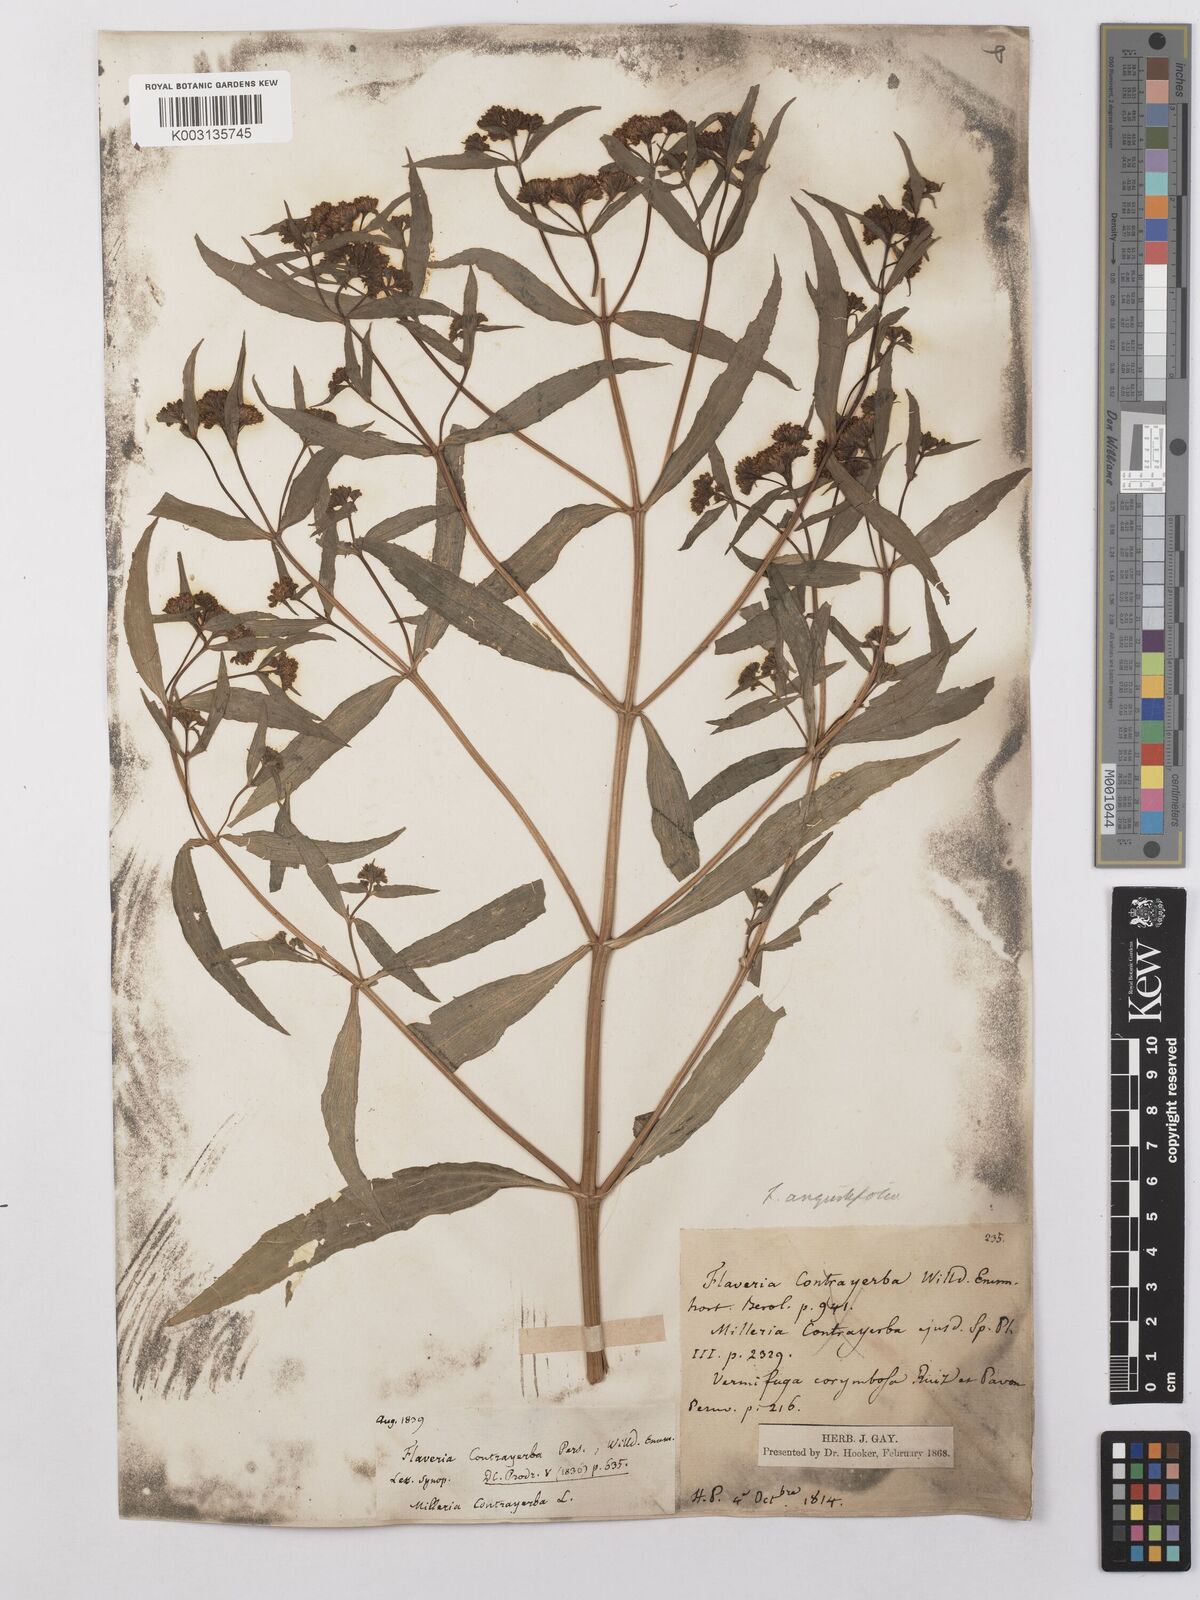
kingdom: Plantae
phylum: Tracheophyta
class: Magnoliopsida
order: Asterales
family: Asteraceae
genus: Flaveria
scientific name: Flaveria bidentis
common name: Coastal plain yellowtops
